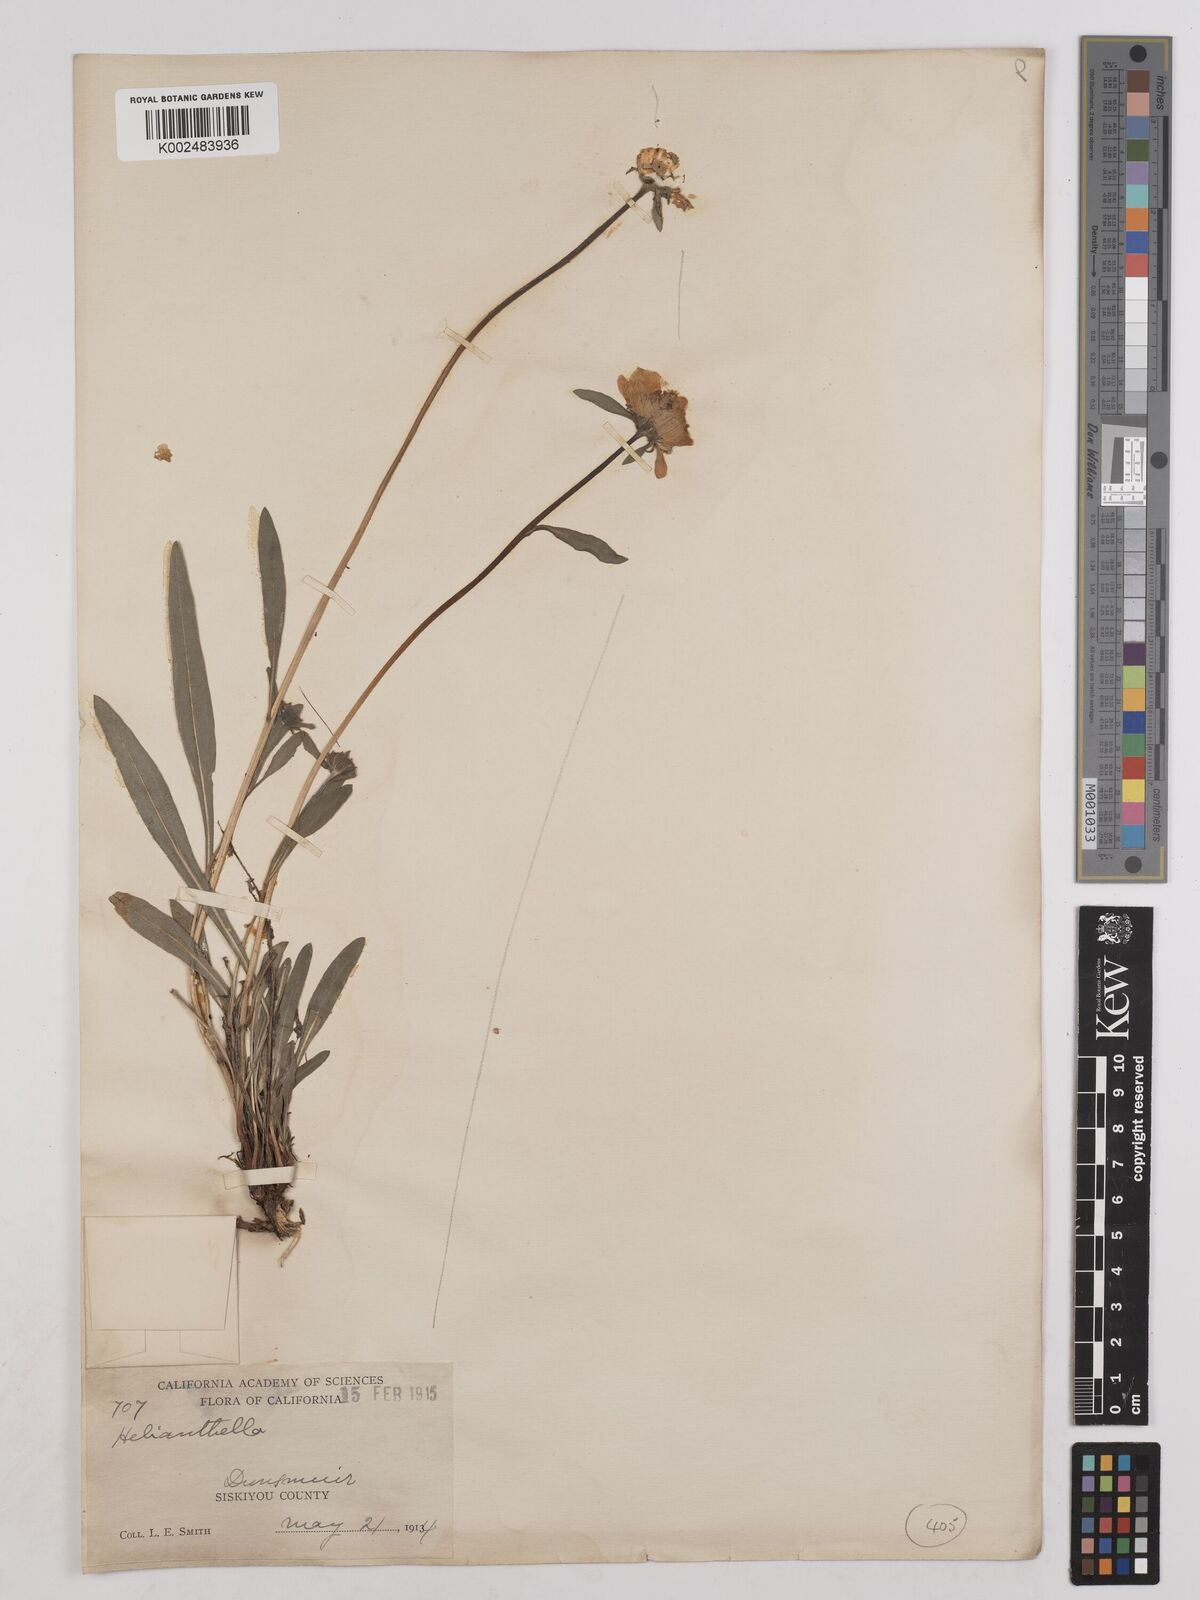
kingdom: Plantae
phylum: Tracheophyta
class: Magnoliopsida
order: Asterales
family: Asteraceae
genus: Helianthella
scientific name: Helianthella
